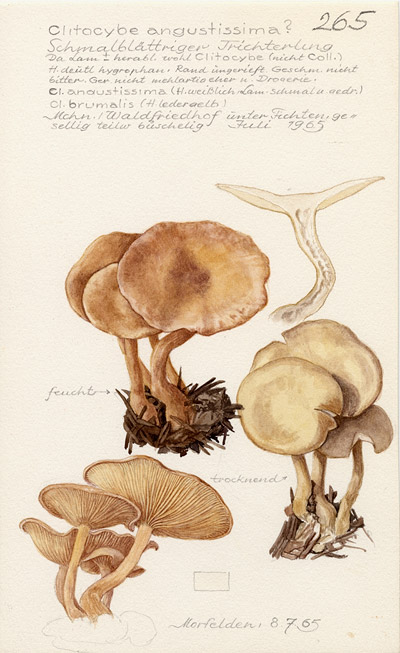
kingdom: Fungi
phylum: Basidiomycota
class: Agaricomycetes
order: Agaricales
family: Tricholomataceae
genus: Clitocybe
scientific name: Clitocybe angustissima
